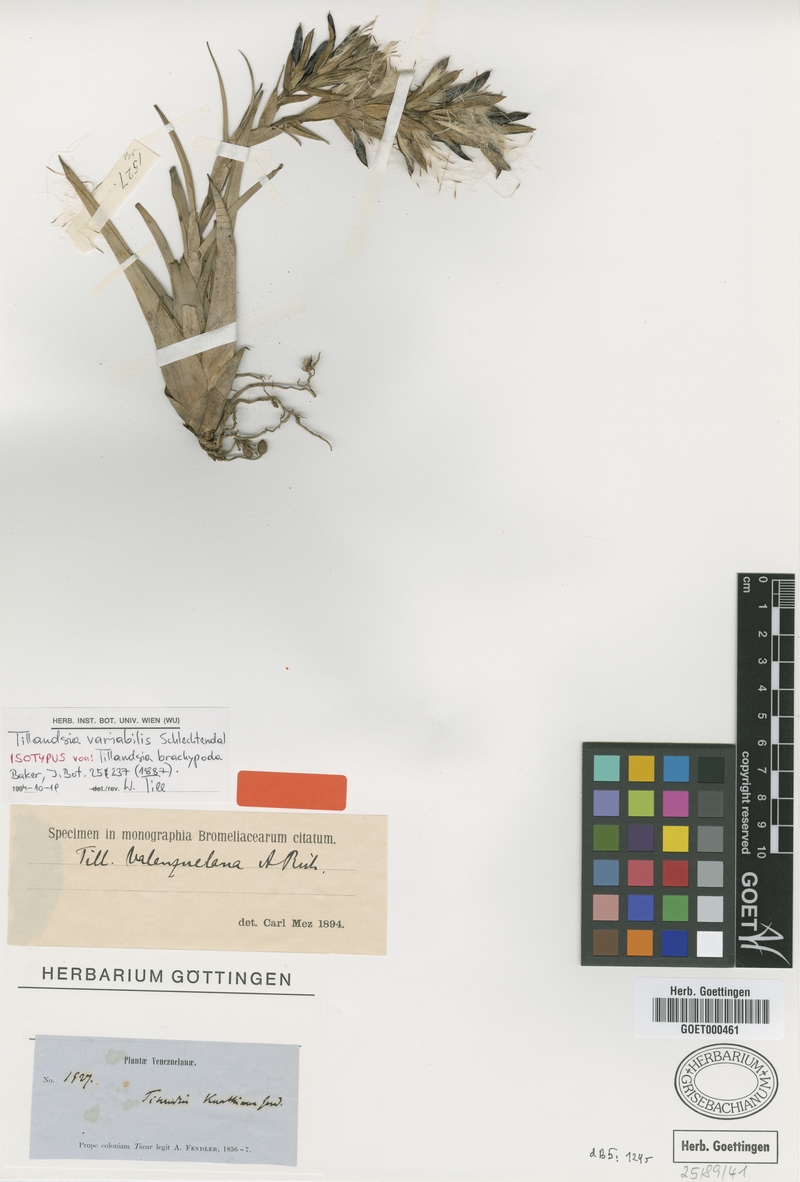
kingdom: Plantae
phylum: Tracheophyta
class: Liliopsida
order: Poales
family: Bromeliaceae
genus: Tillandsia
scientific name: Tillandsia variabilis
